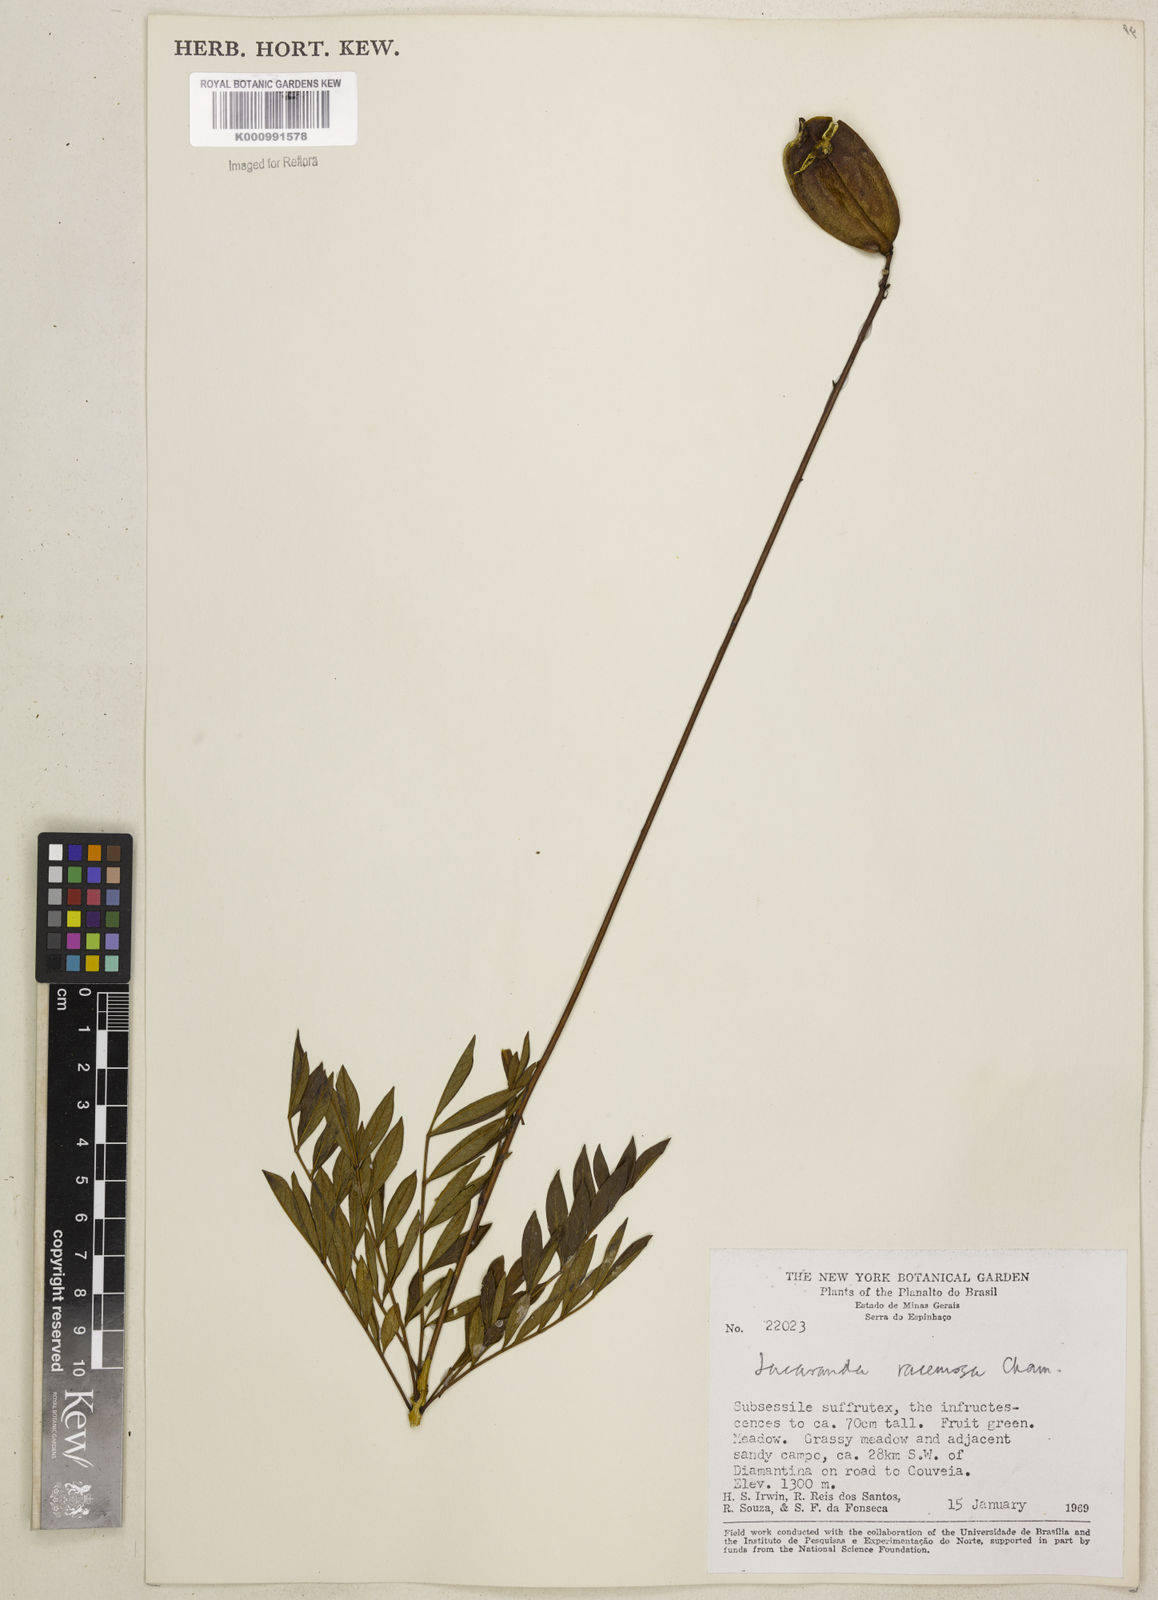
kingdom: Plantae
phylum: Tracheophyta
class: Magnoliopsida
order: Lamiales
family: Bignoniaceae
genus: Jacaranda
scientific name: Jacaranda racemosa
